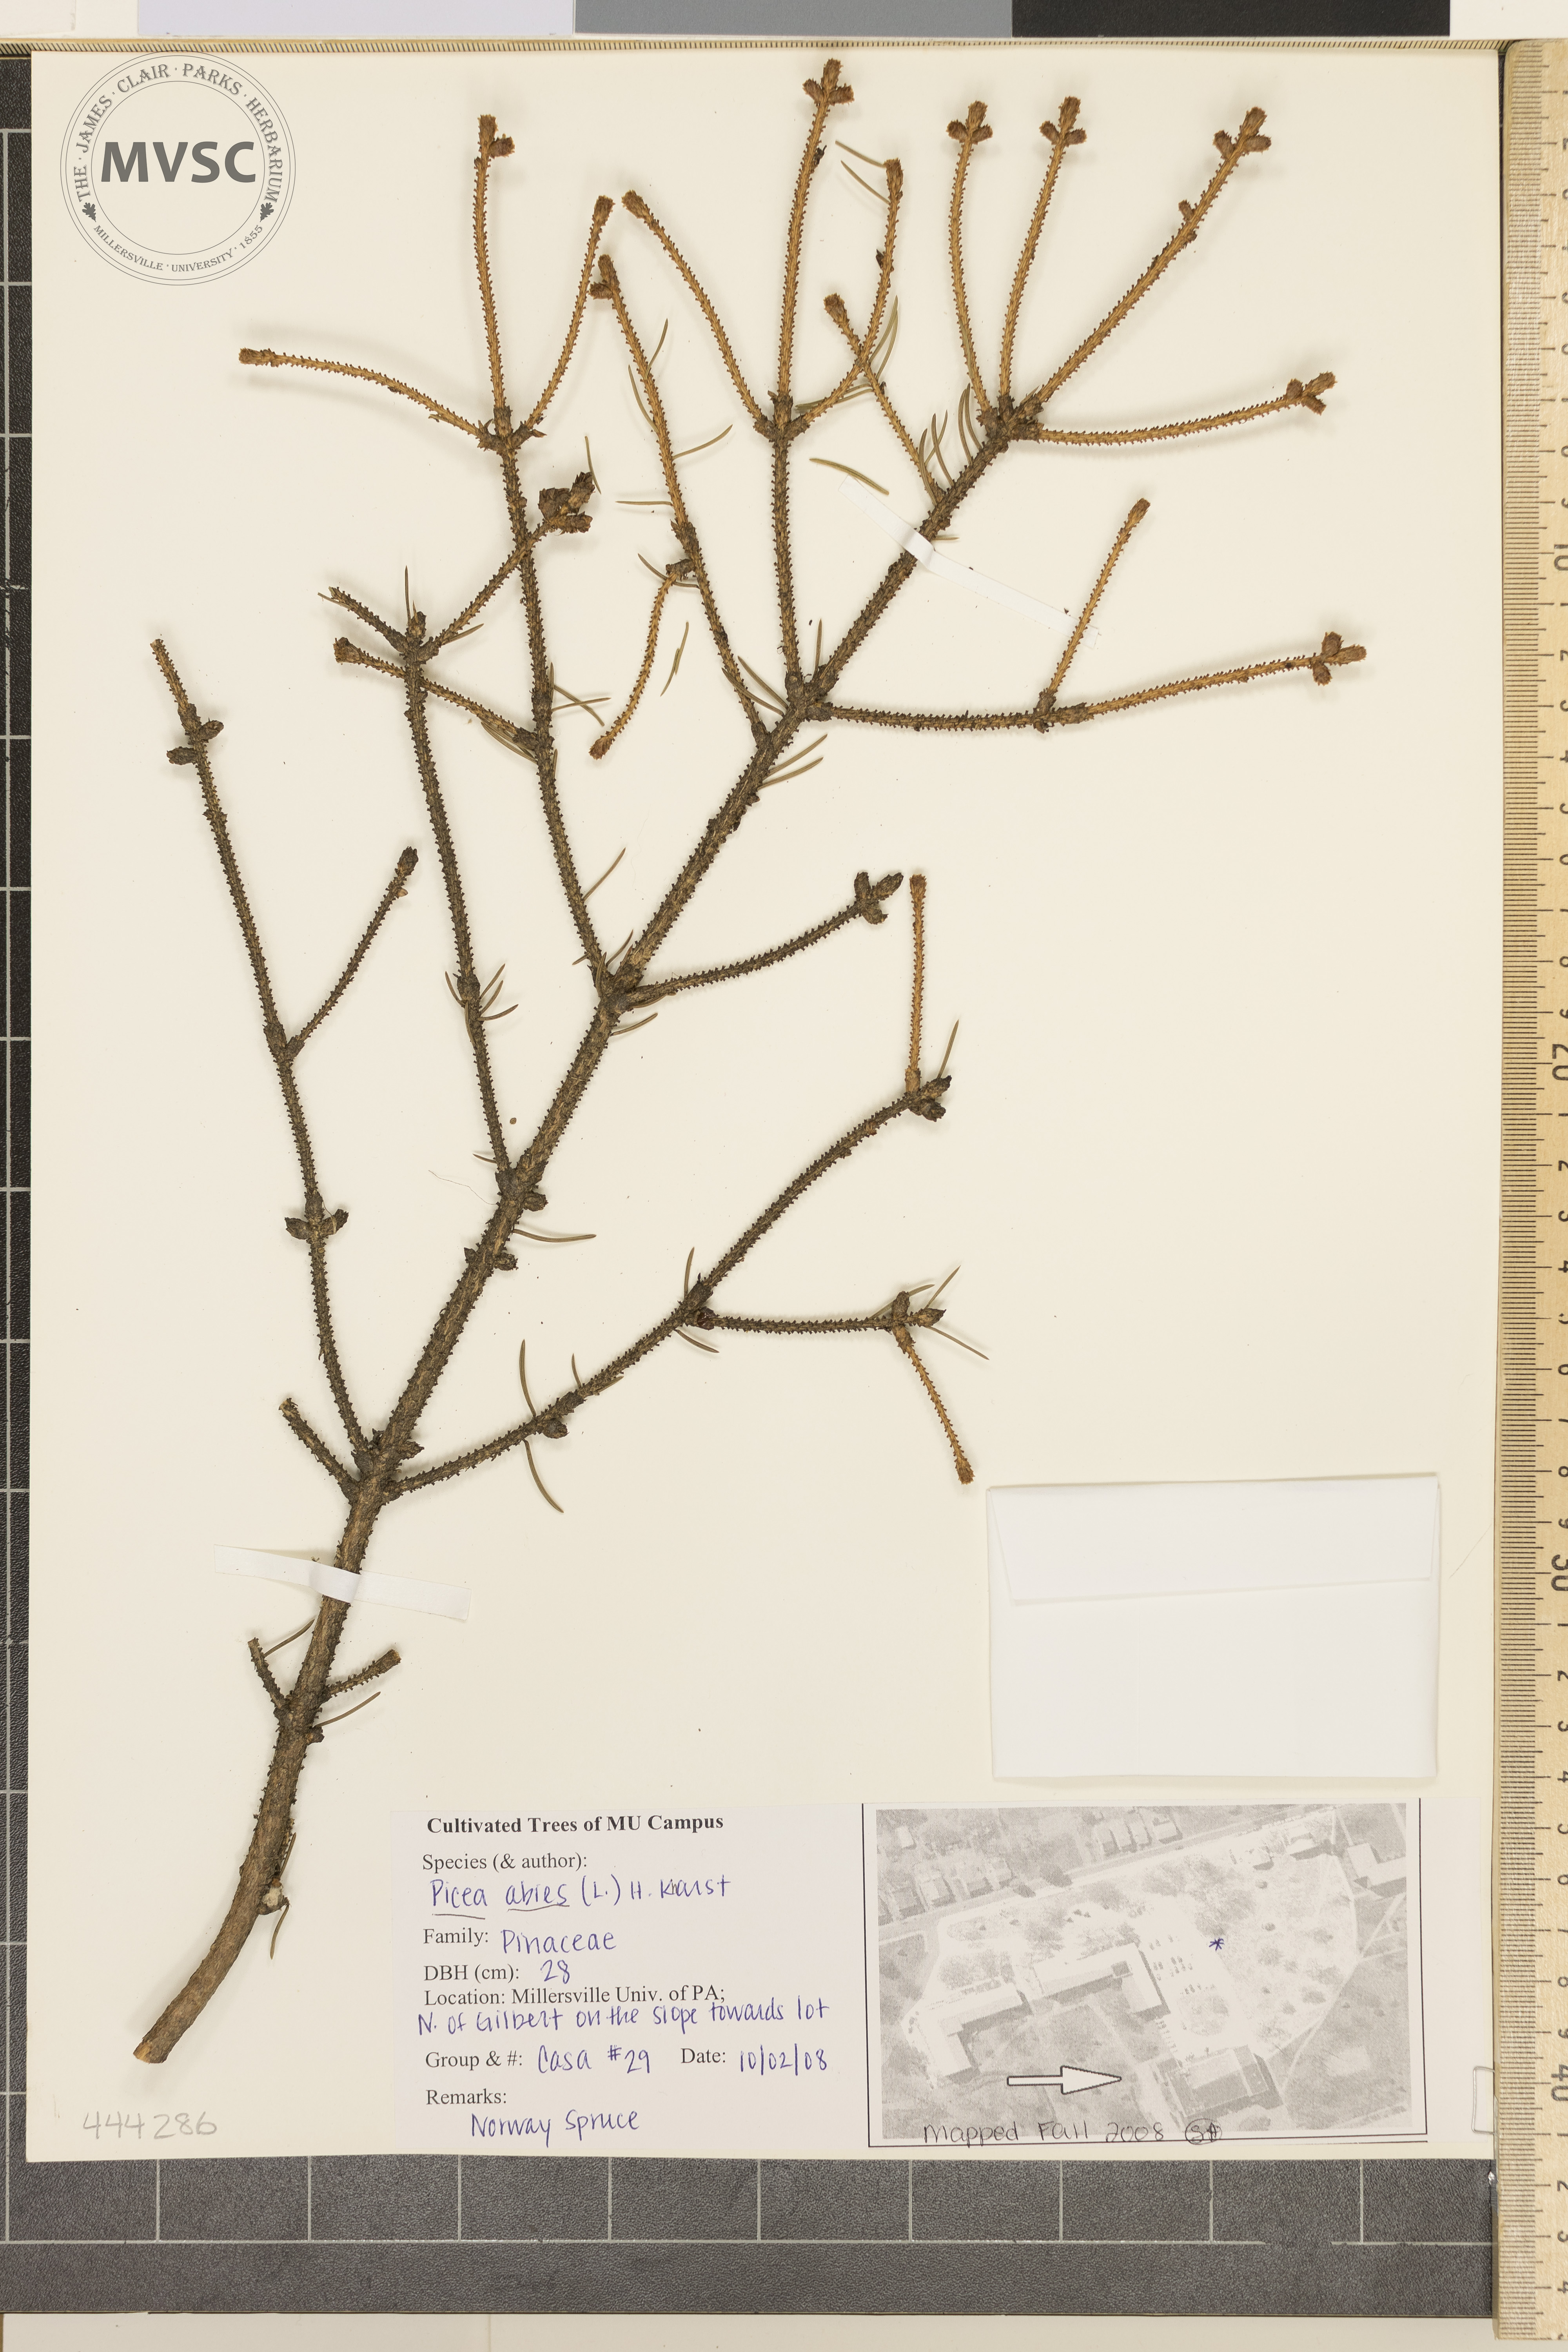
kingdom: Plantae
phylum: Tracheophyta
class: Pinopsida
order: Pinales
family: Pinaceae
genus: Picea
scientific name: Picea abies
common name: Norway Spruce
